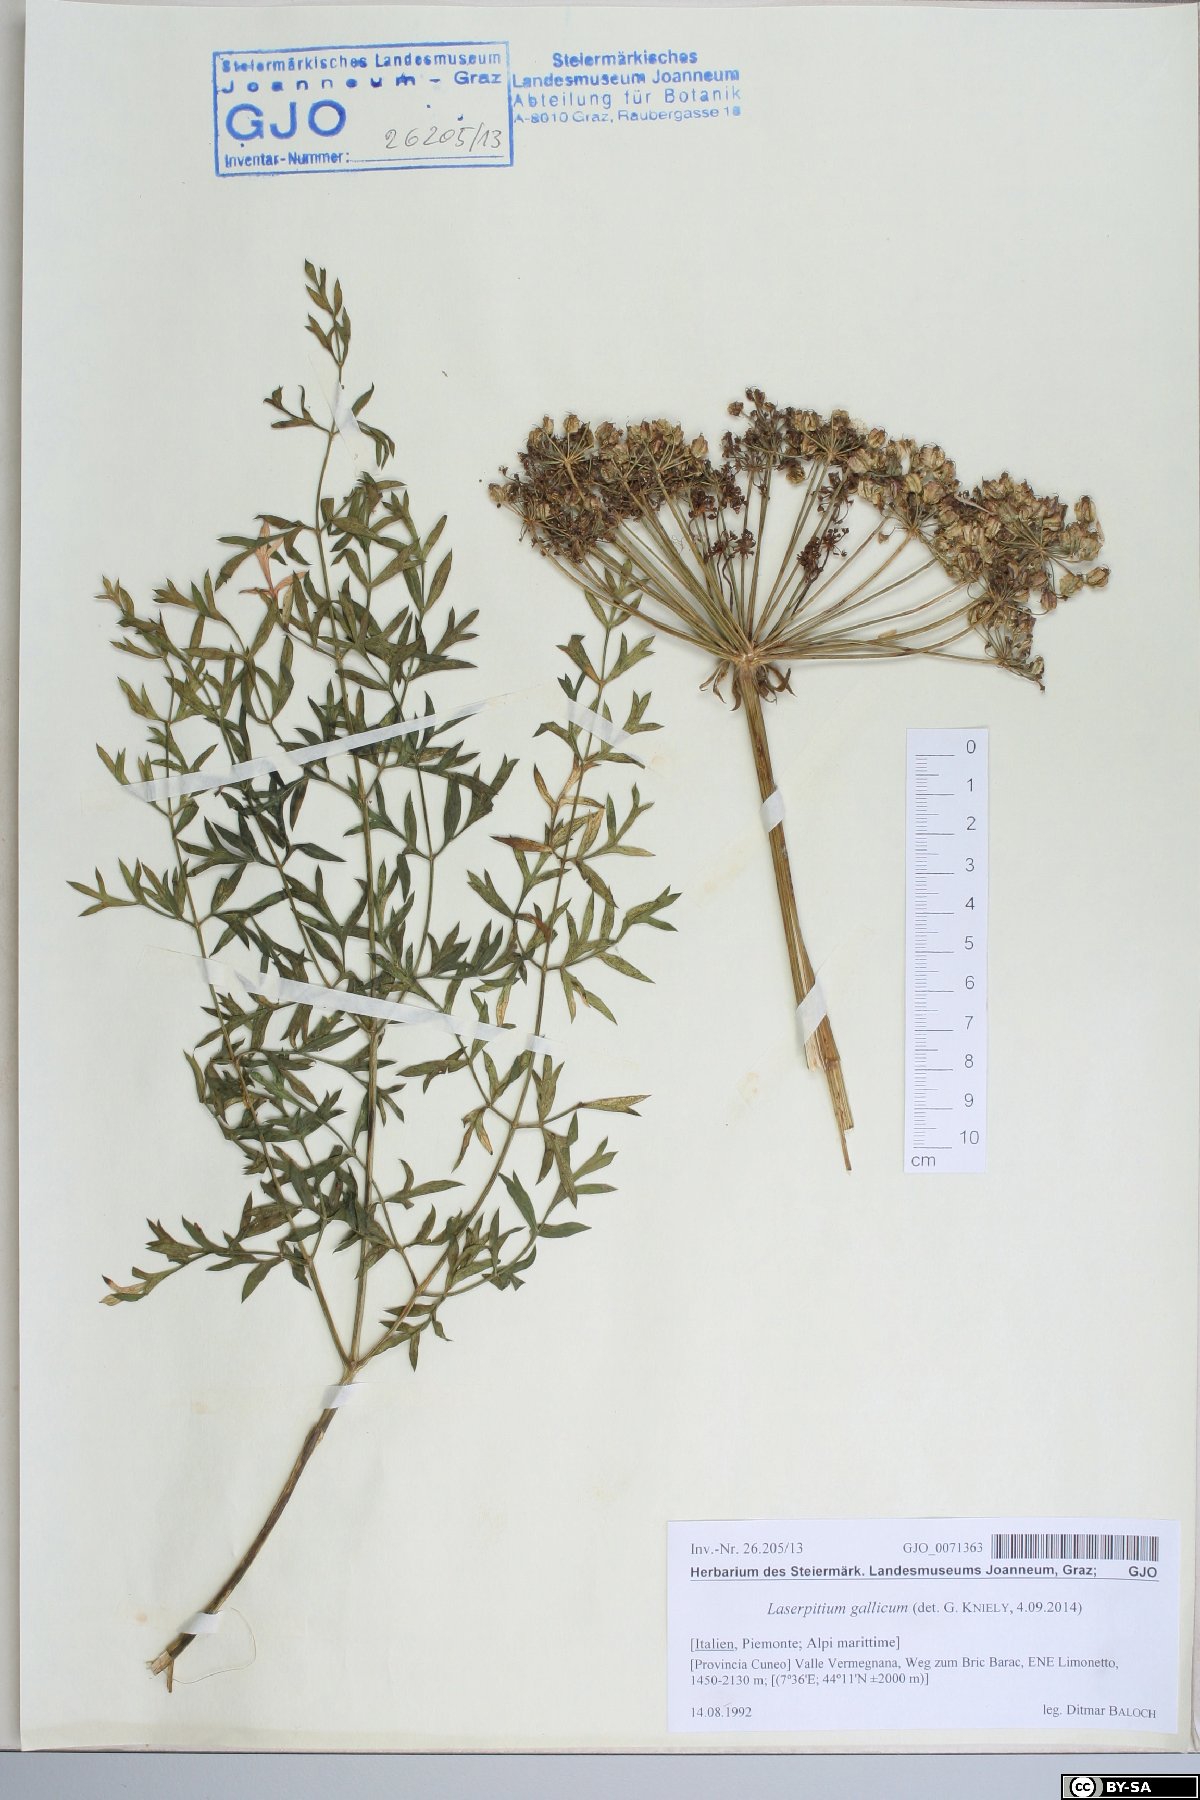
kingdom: Plantae
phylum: Tracheophyta
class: Magnoliopsida
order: Apiales
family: Apiaceae
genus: Laserpitium
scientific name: Laserpitium gallicum
